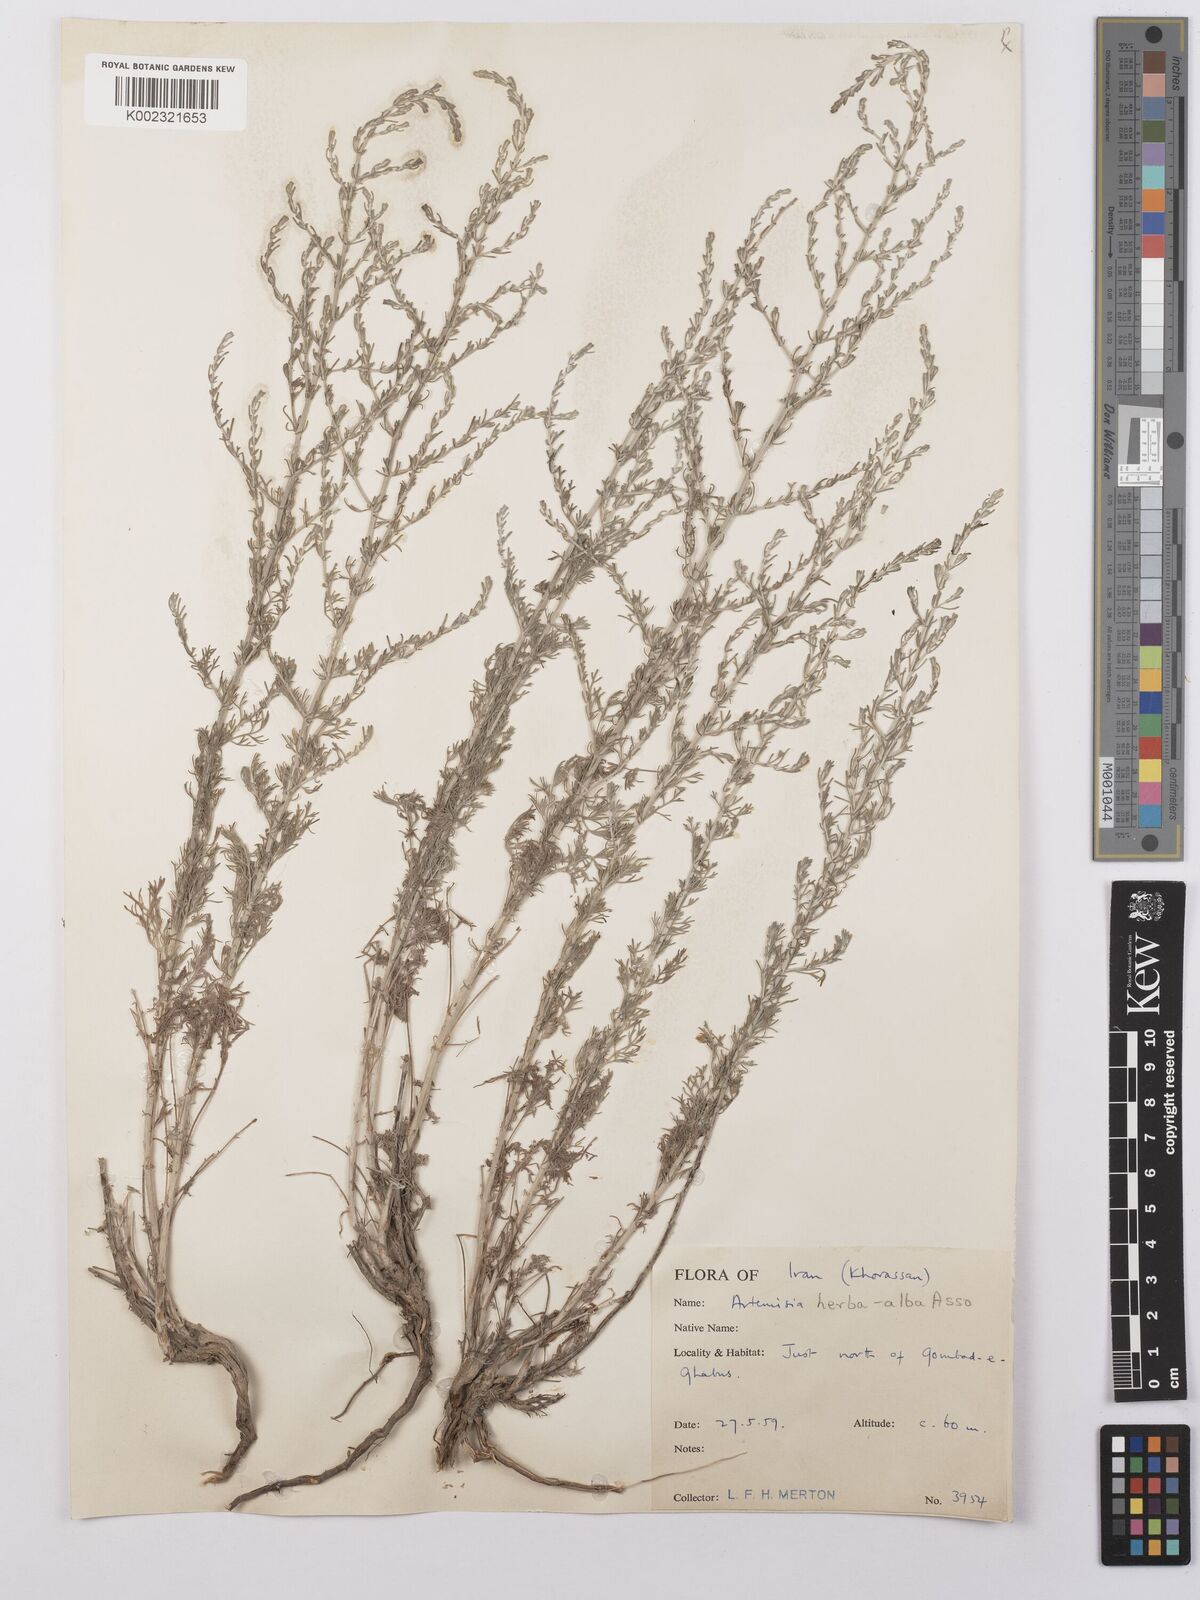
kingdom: Plantae
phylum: Tracheophyta
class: Magnoliopsida
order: Asterales
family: Asteraceae
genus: Artemisia
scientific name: Artemisia herba-alba
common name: White wormwood
